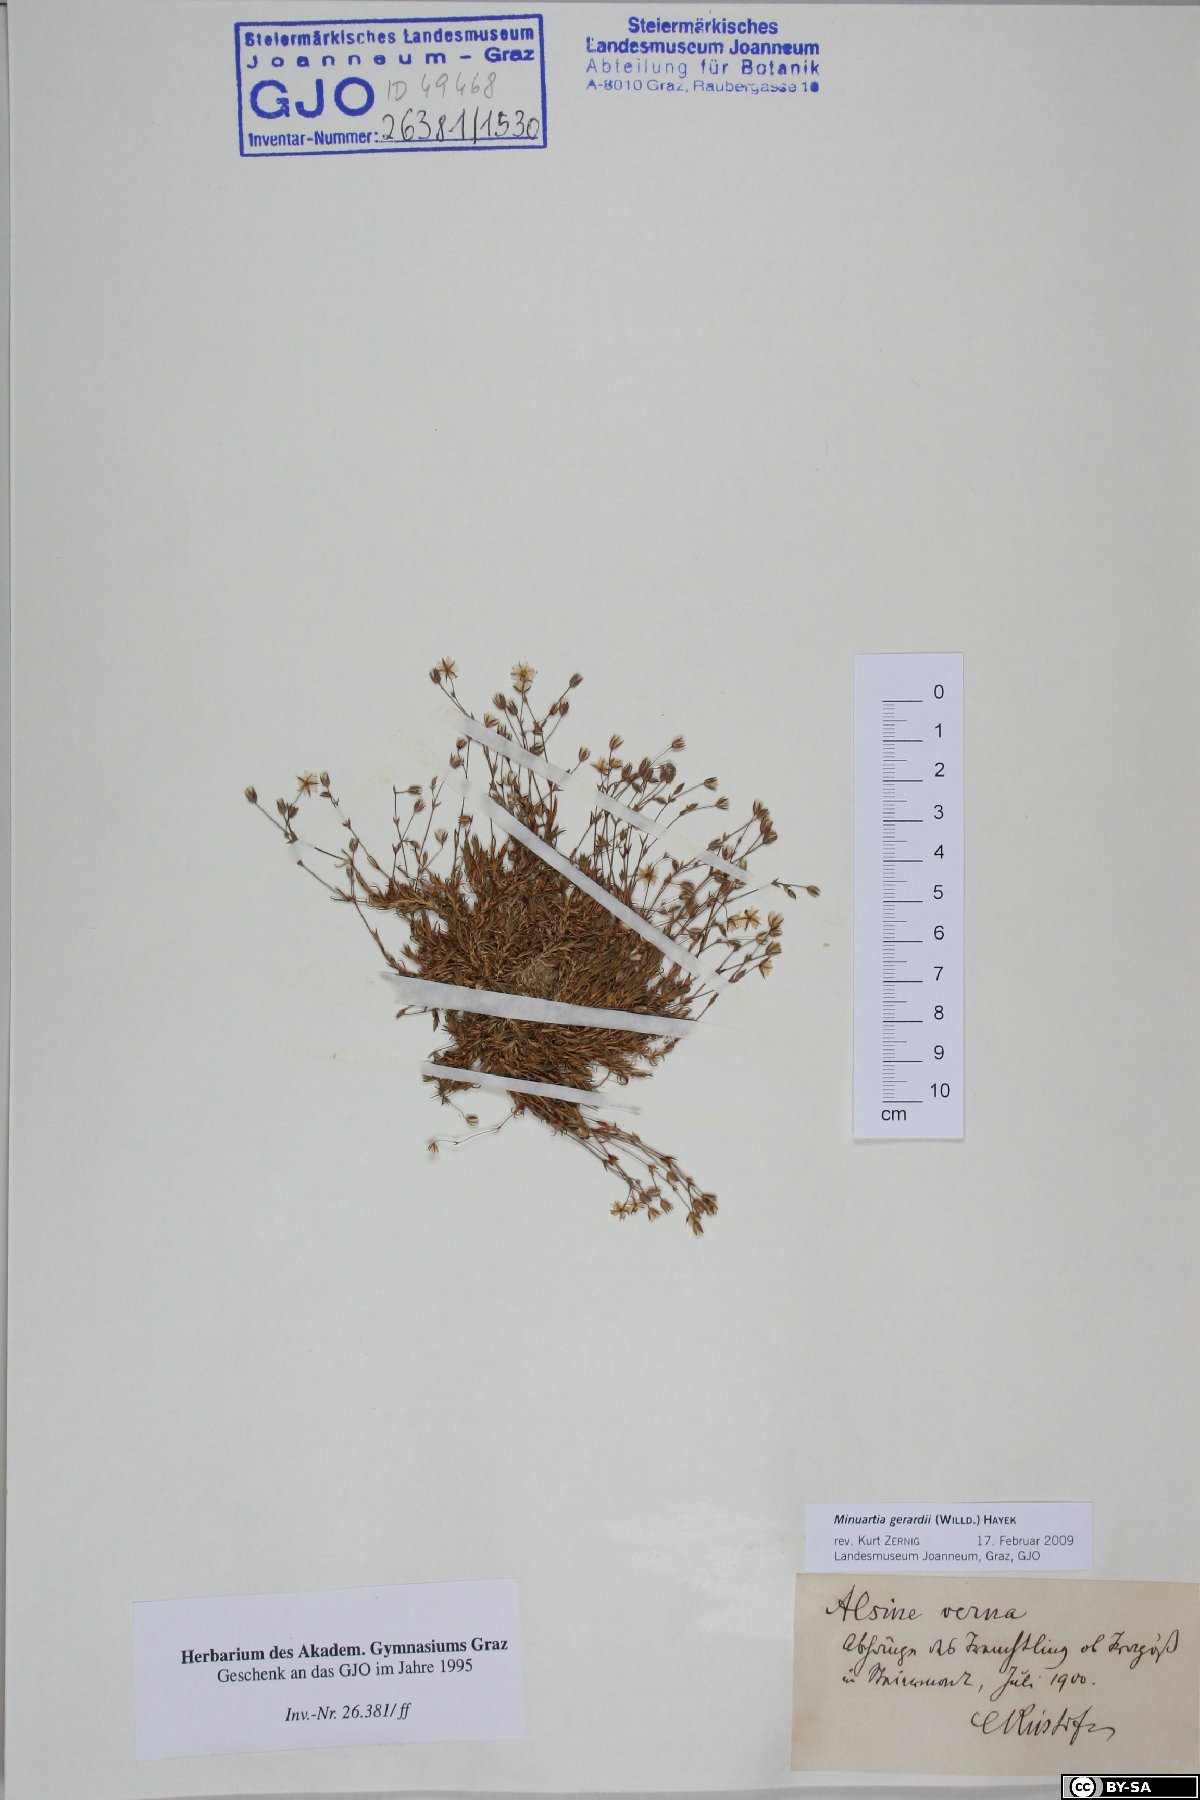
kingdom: Plantae
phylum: Tracheophyta
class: Magnoliopsida
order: Caryophyllales
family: Caryophyllaceae
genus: Sabulina
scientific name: Sabulina verna
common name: Spring sandwort
